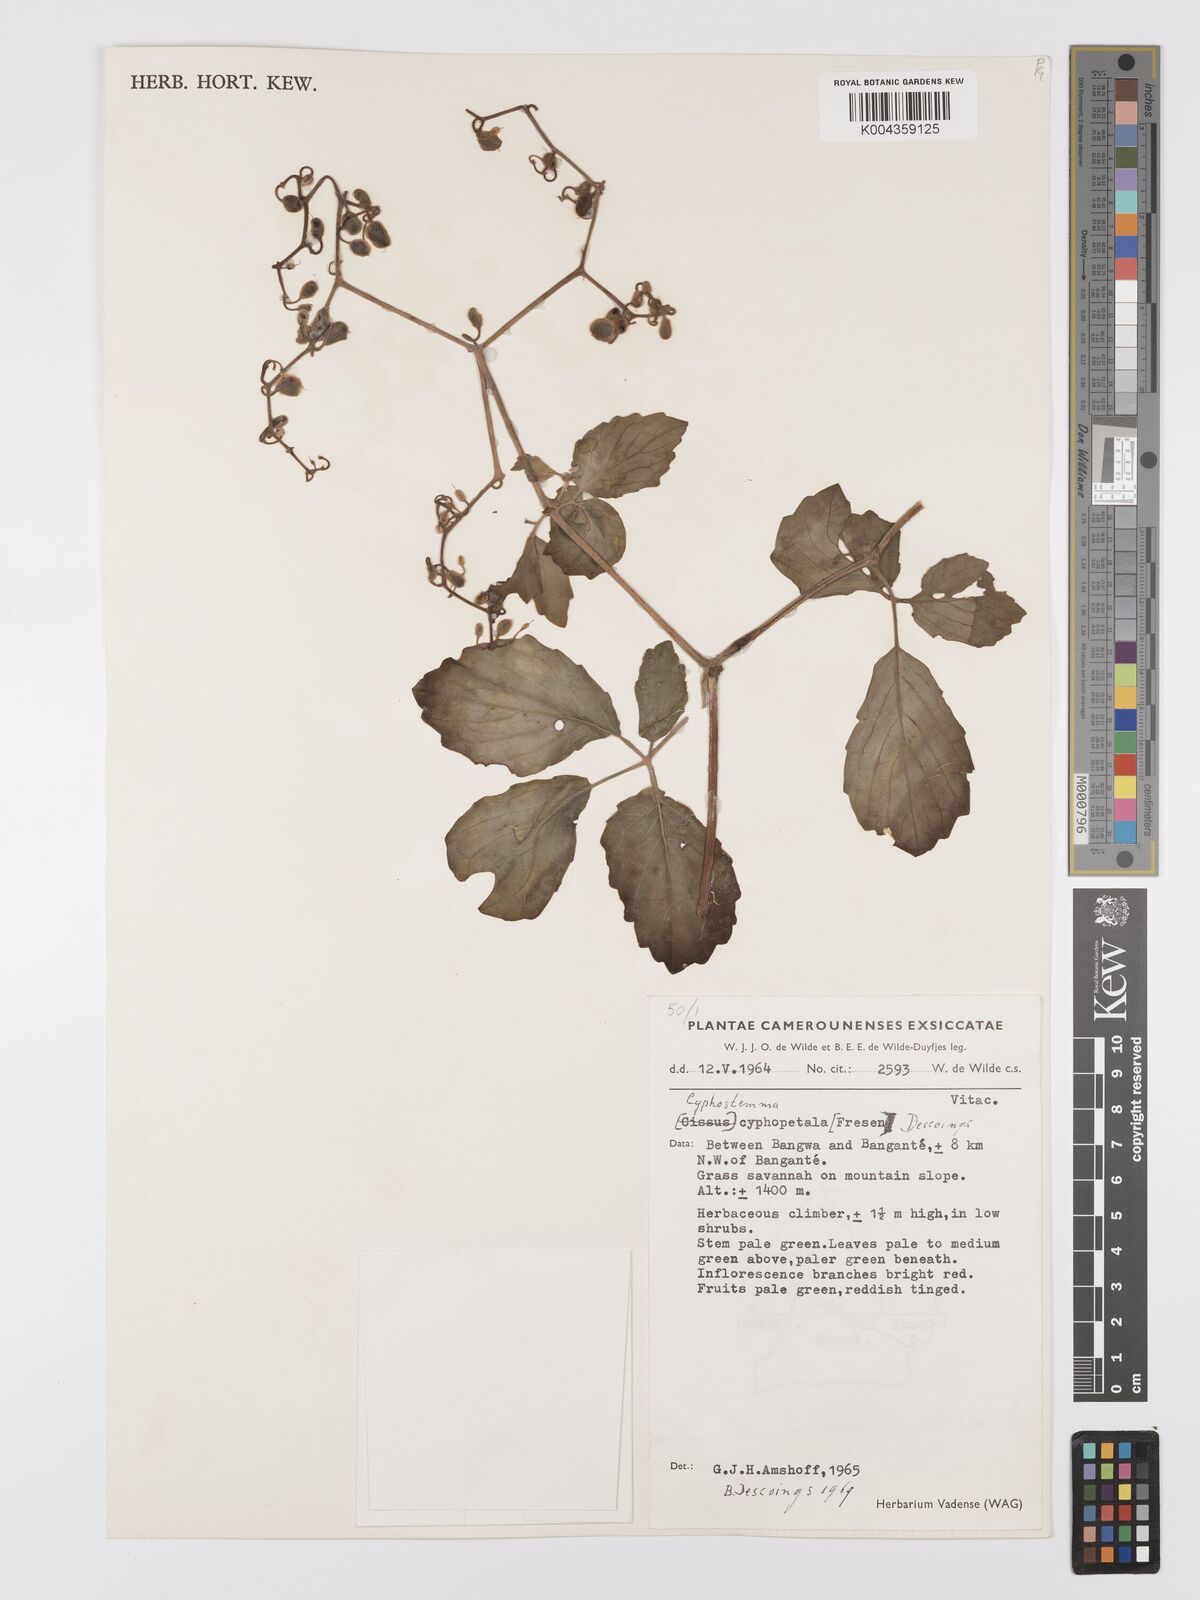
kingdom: Plantae
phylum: Tracheophyta
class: Magnoliopsida
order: Vitales
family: Vitaceae
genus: Cyphostemma
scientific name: Cyphostemma cyphopetalum
